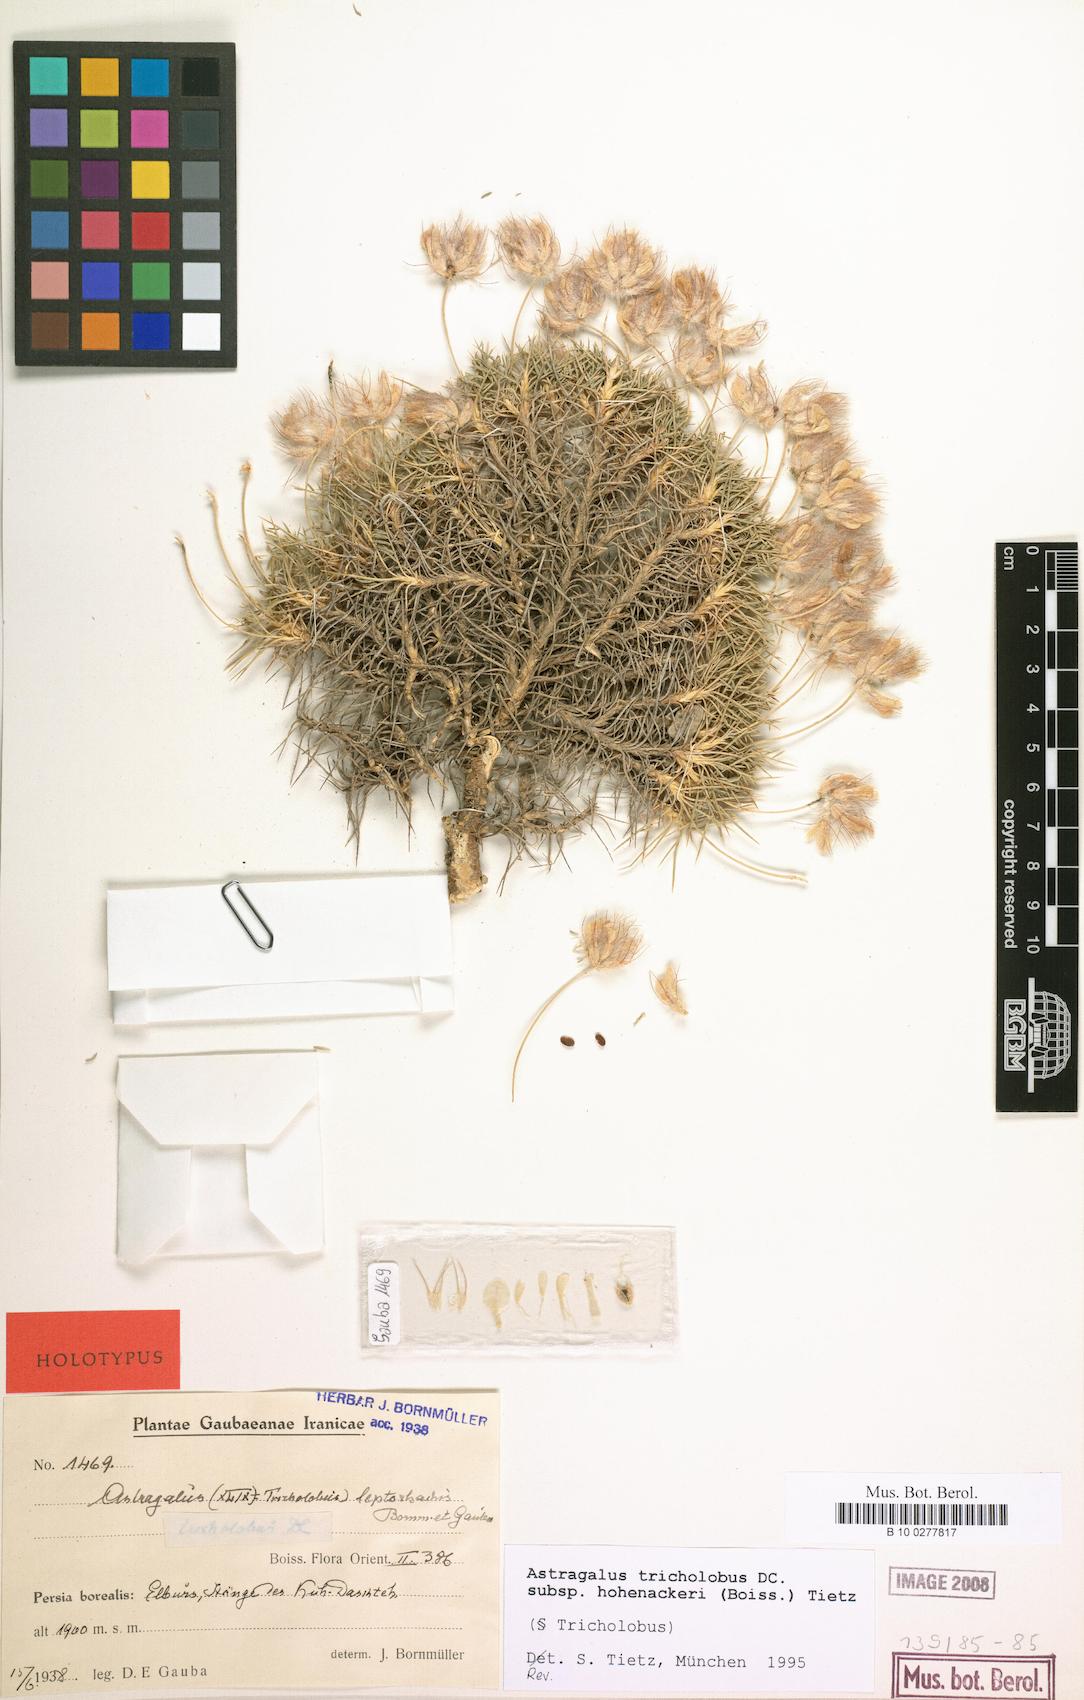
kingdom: Plantae
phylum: Tracheophyta
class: Magnoliopsida
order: Fabales
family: Fabaceae
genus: Astragalus
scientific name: Astragalus hohenackeri
